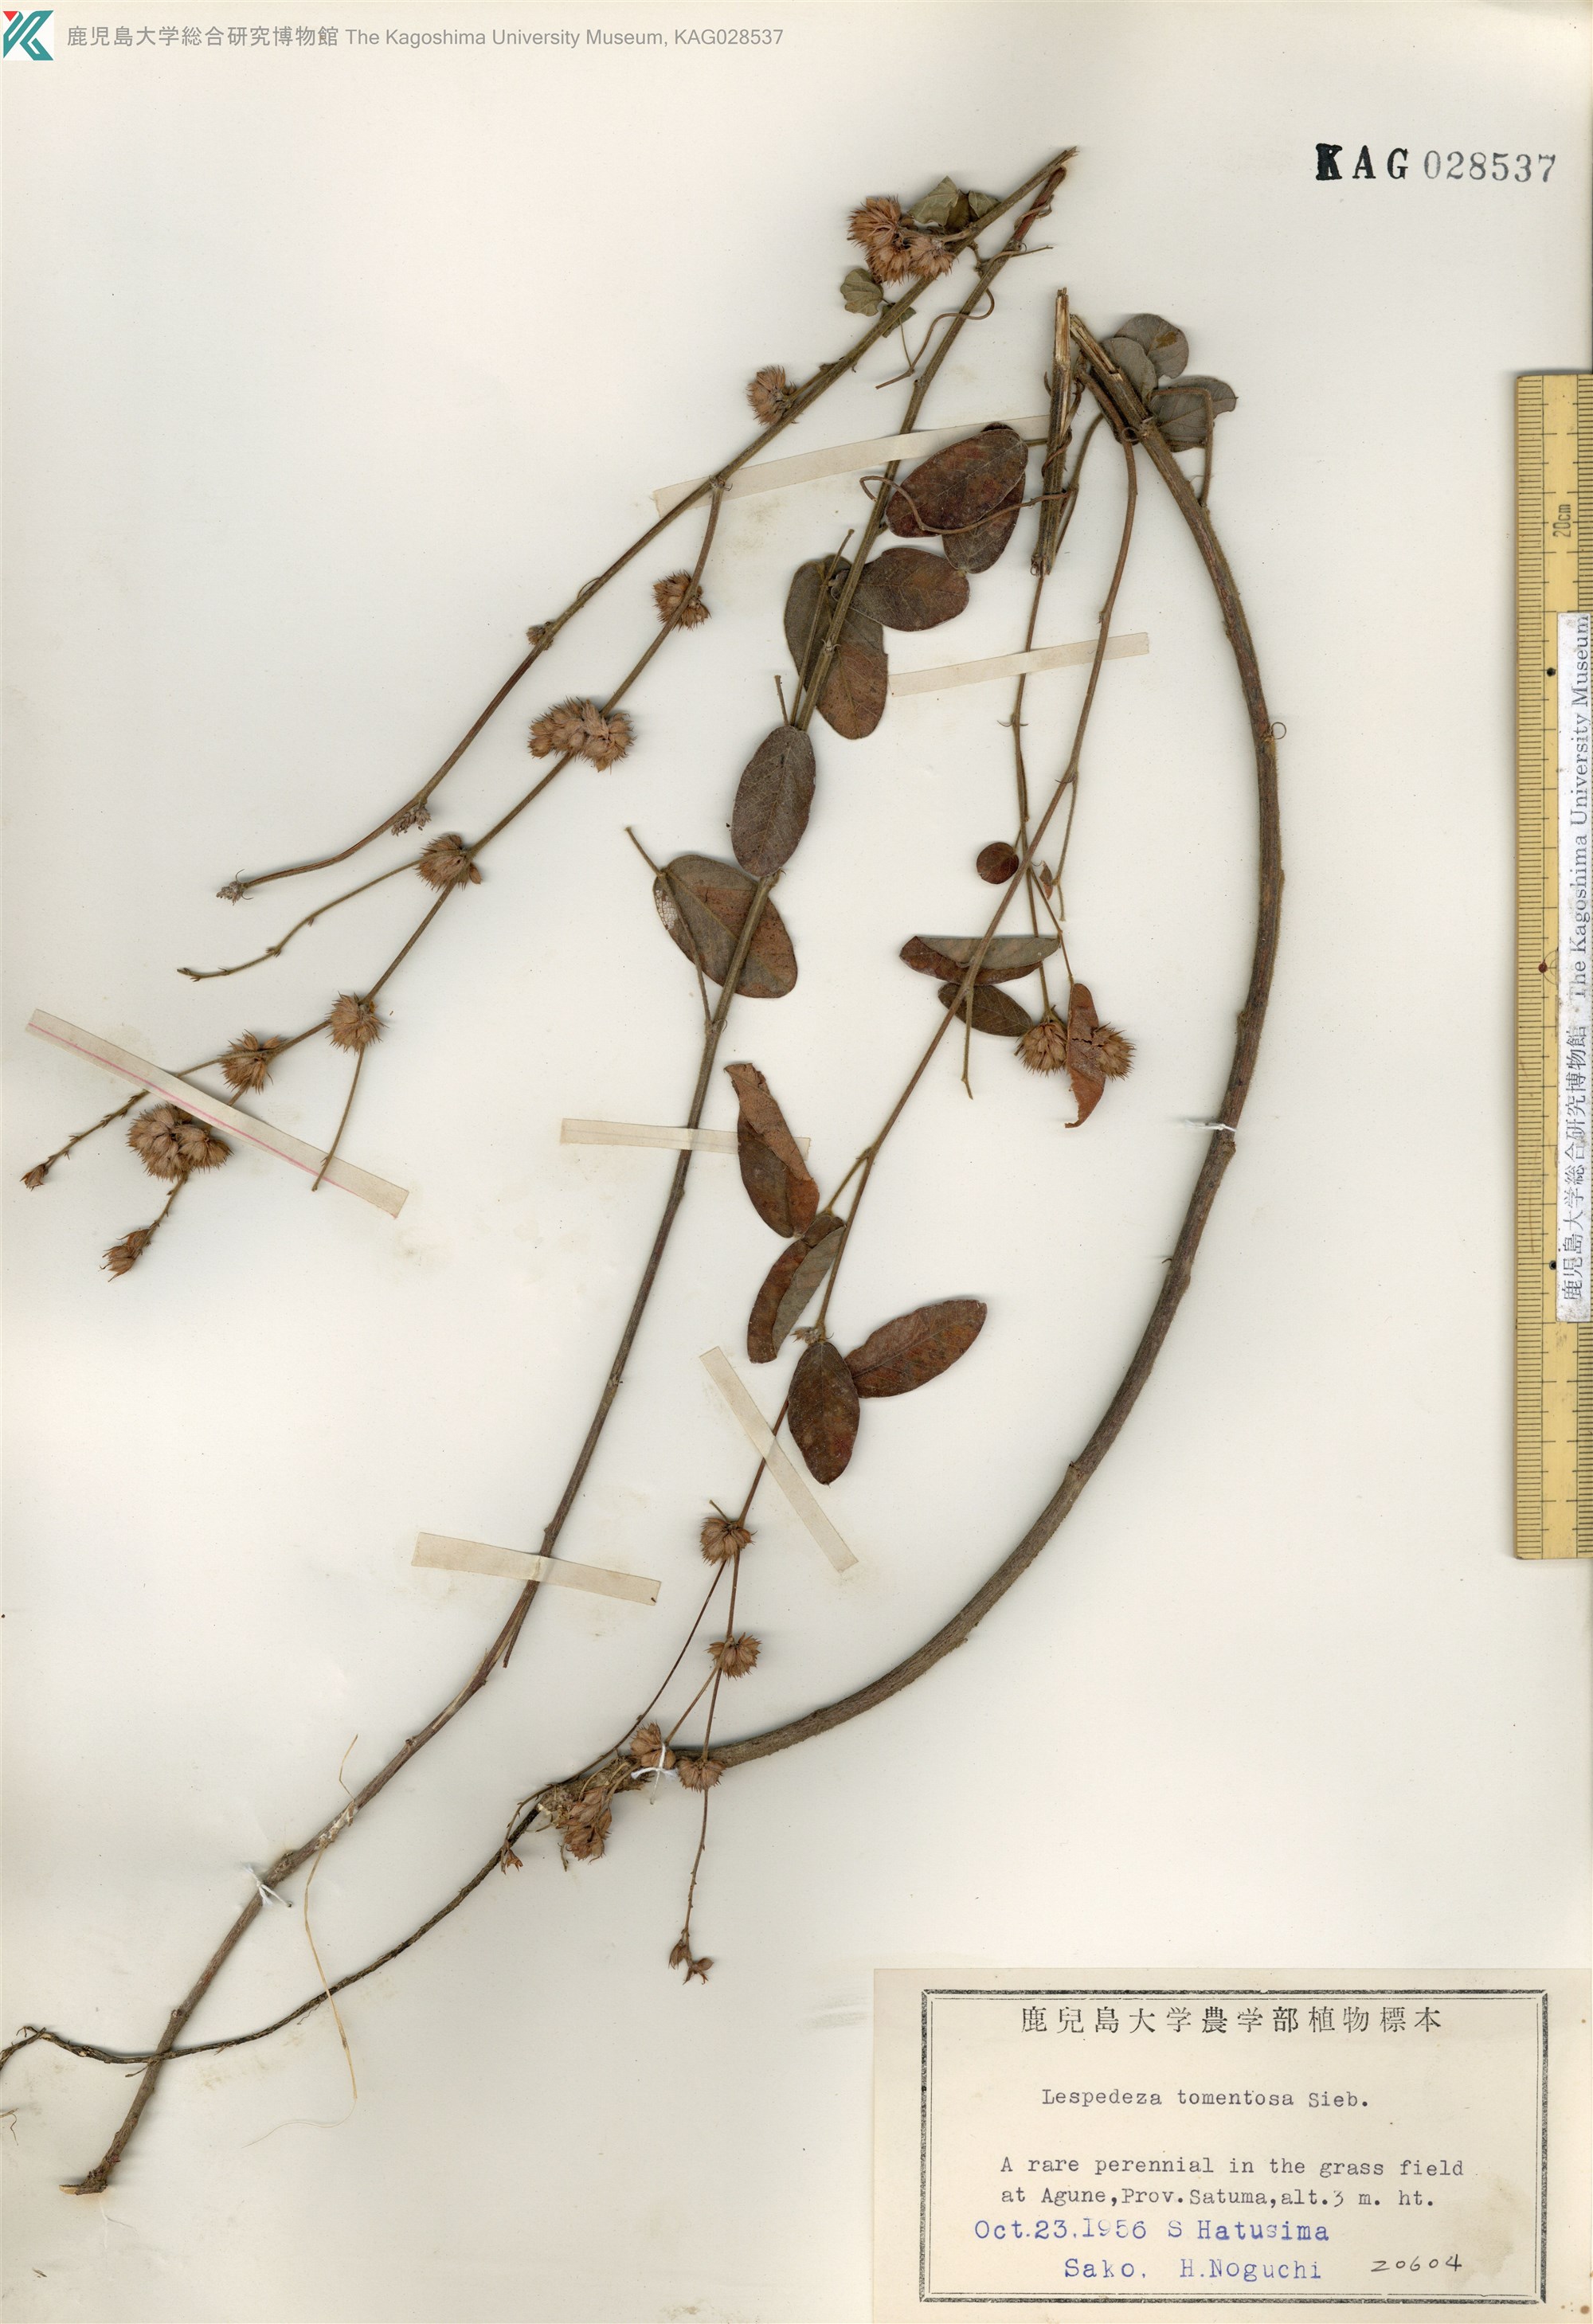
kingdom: Plantae
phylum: Tracheophyta
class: Magnoliopsida
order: Fabales
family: Fabaceae
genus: Lespedeza
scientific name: Lespedeza tomentosa
